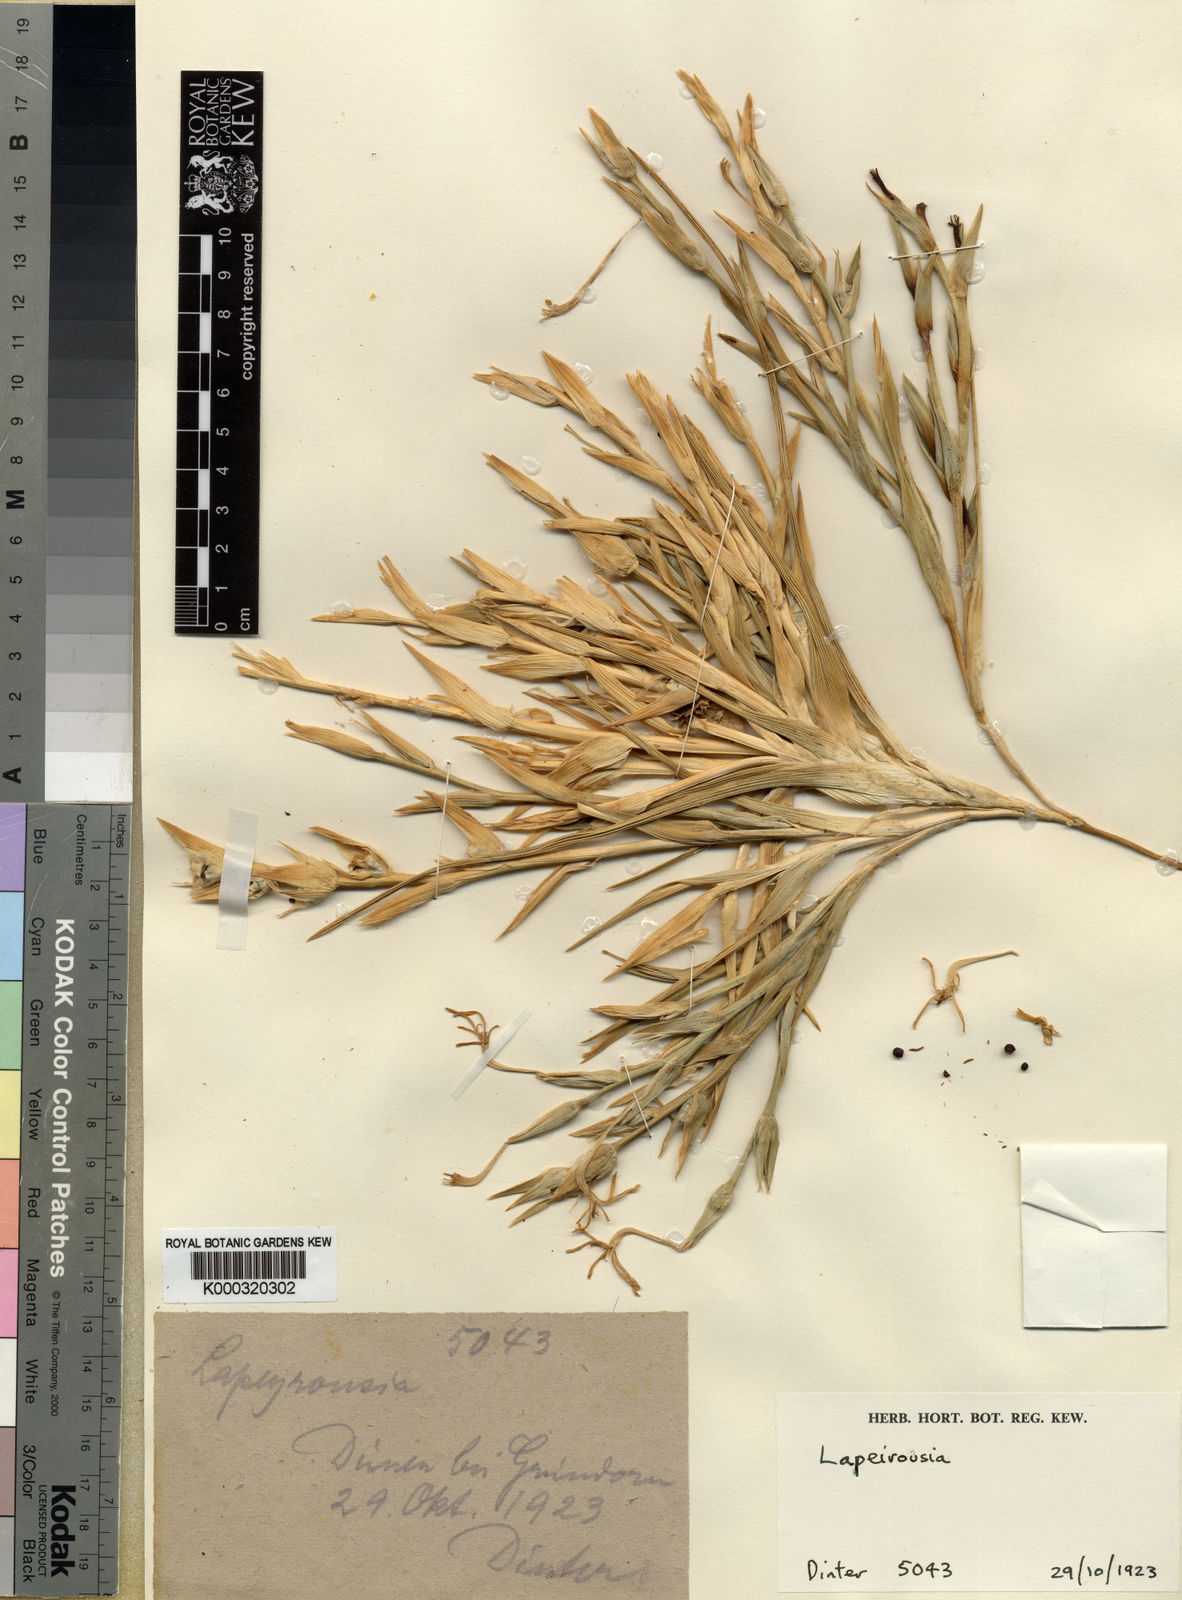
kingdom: Plantae
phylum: Tracheophyta
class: Liliopsida
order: Asparagales
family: Iridaceae
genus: Lapeirousia
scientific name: Lapeirousia littoralis
